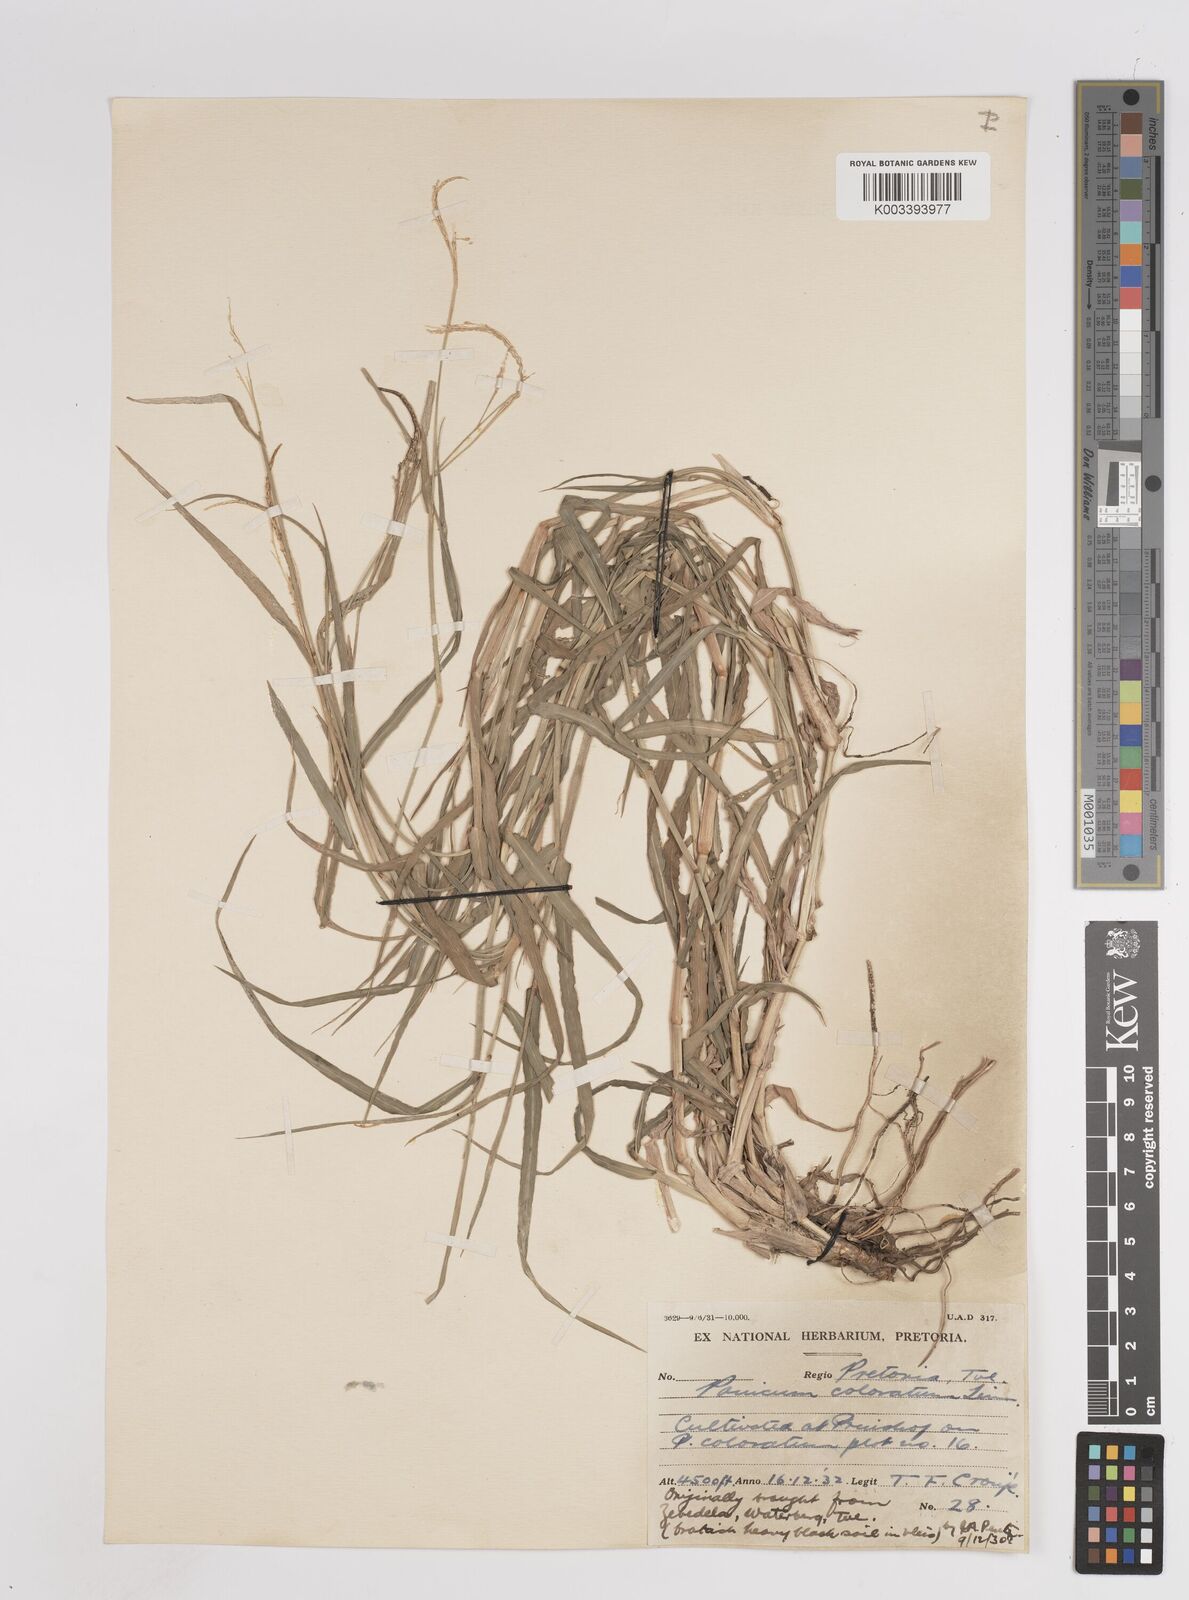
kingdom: Plantae
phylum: Tracheophyta
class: Liliopsida
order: Poales
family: Poaceae
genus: Panicum
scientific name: Panicum coloratum
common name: Kleingrass
